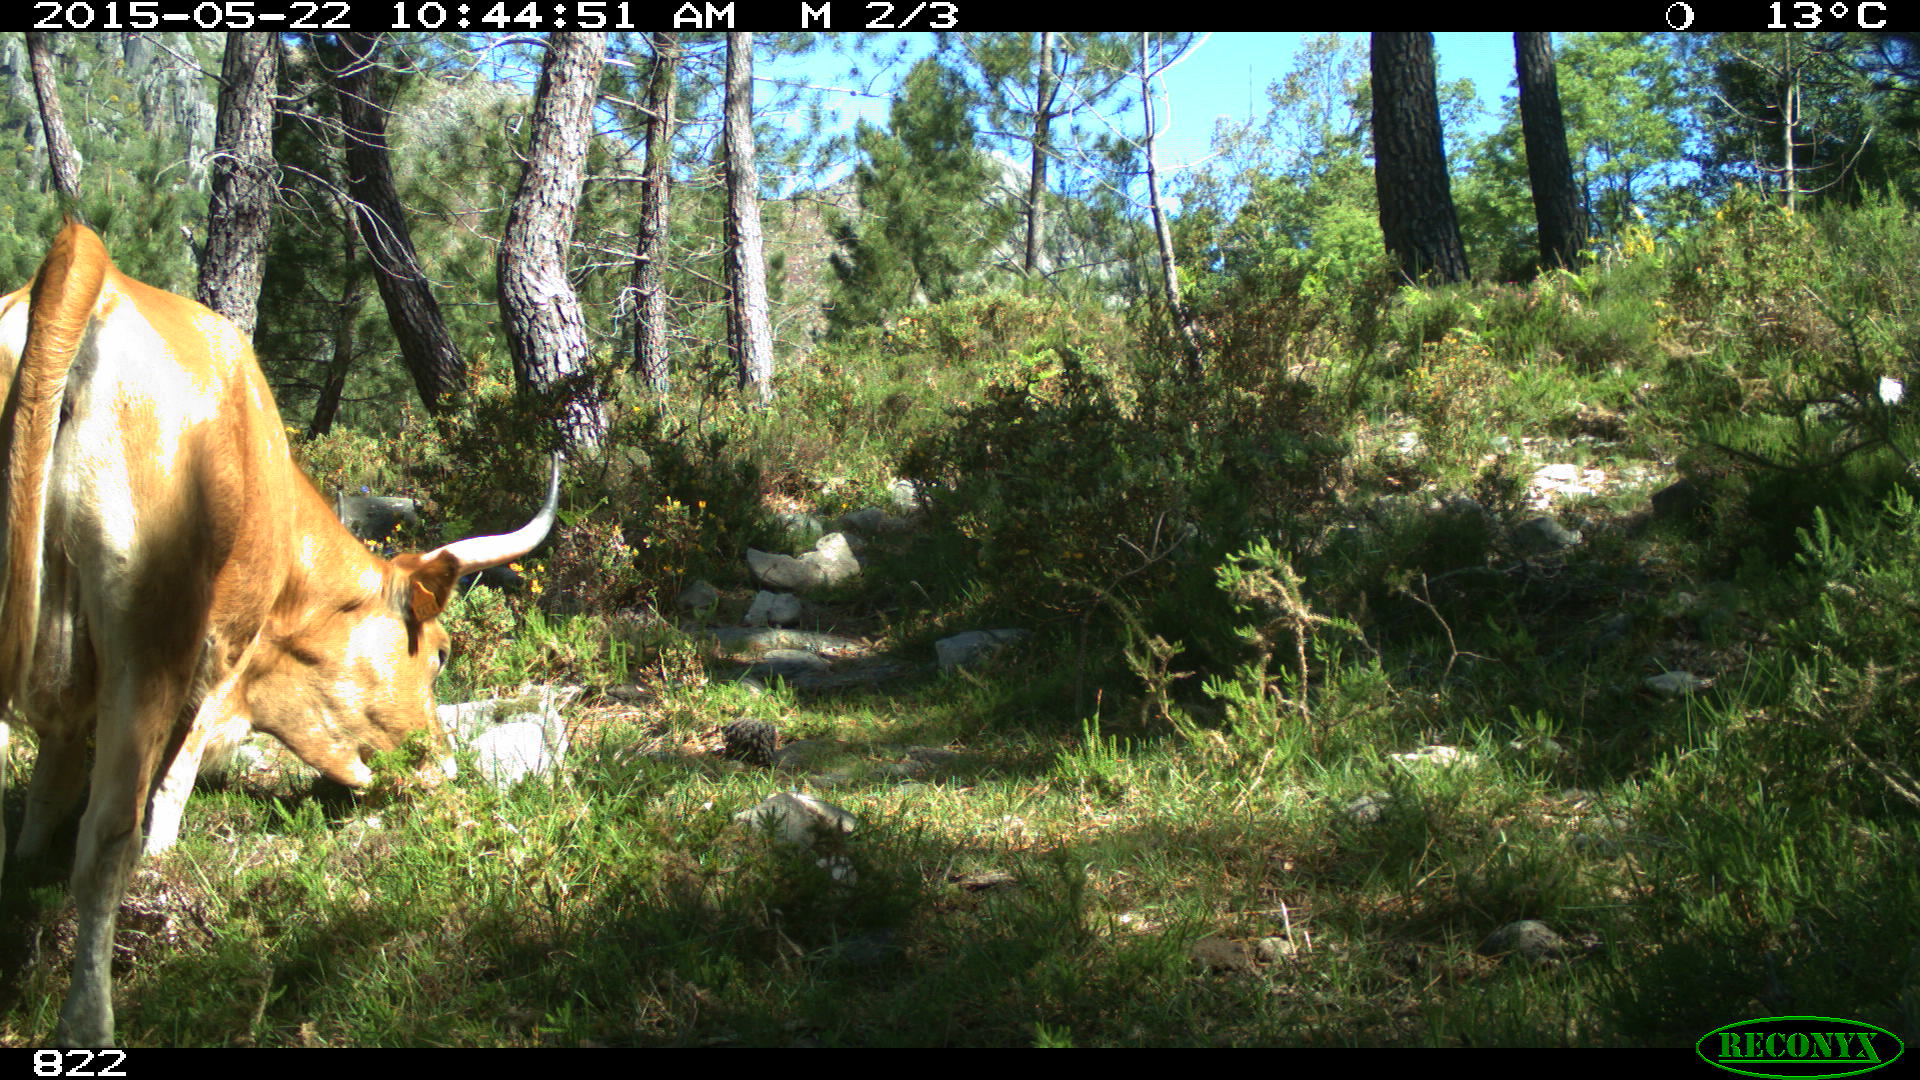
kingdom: Animalia
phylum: Chordata
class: Mammalia
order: Artiodactyla
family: Bovidae
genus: Bos
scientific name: Bos taurus
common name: Domesticated cattle
